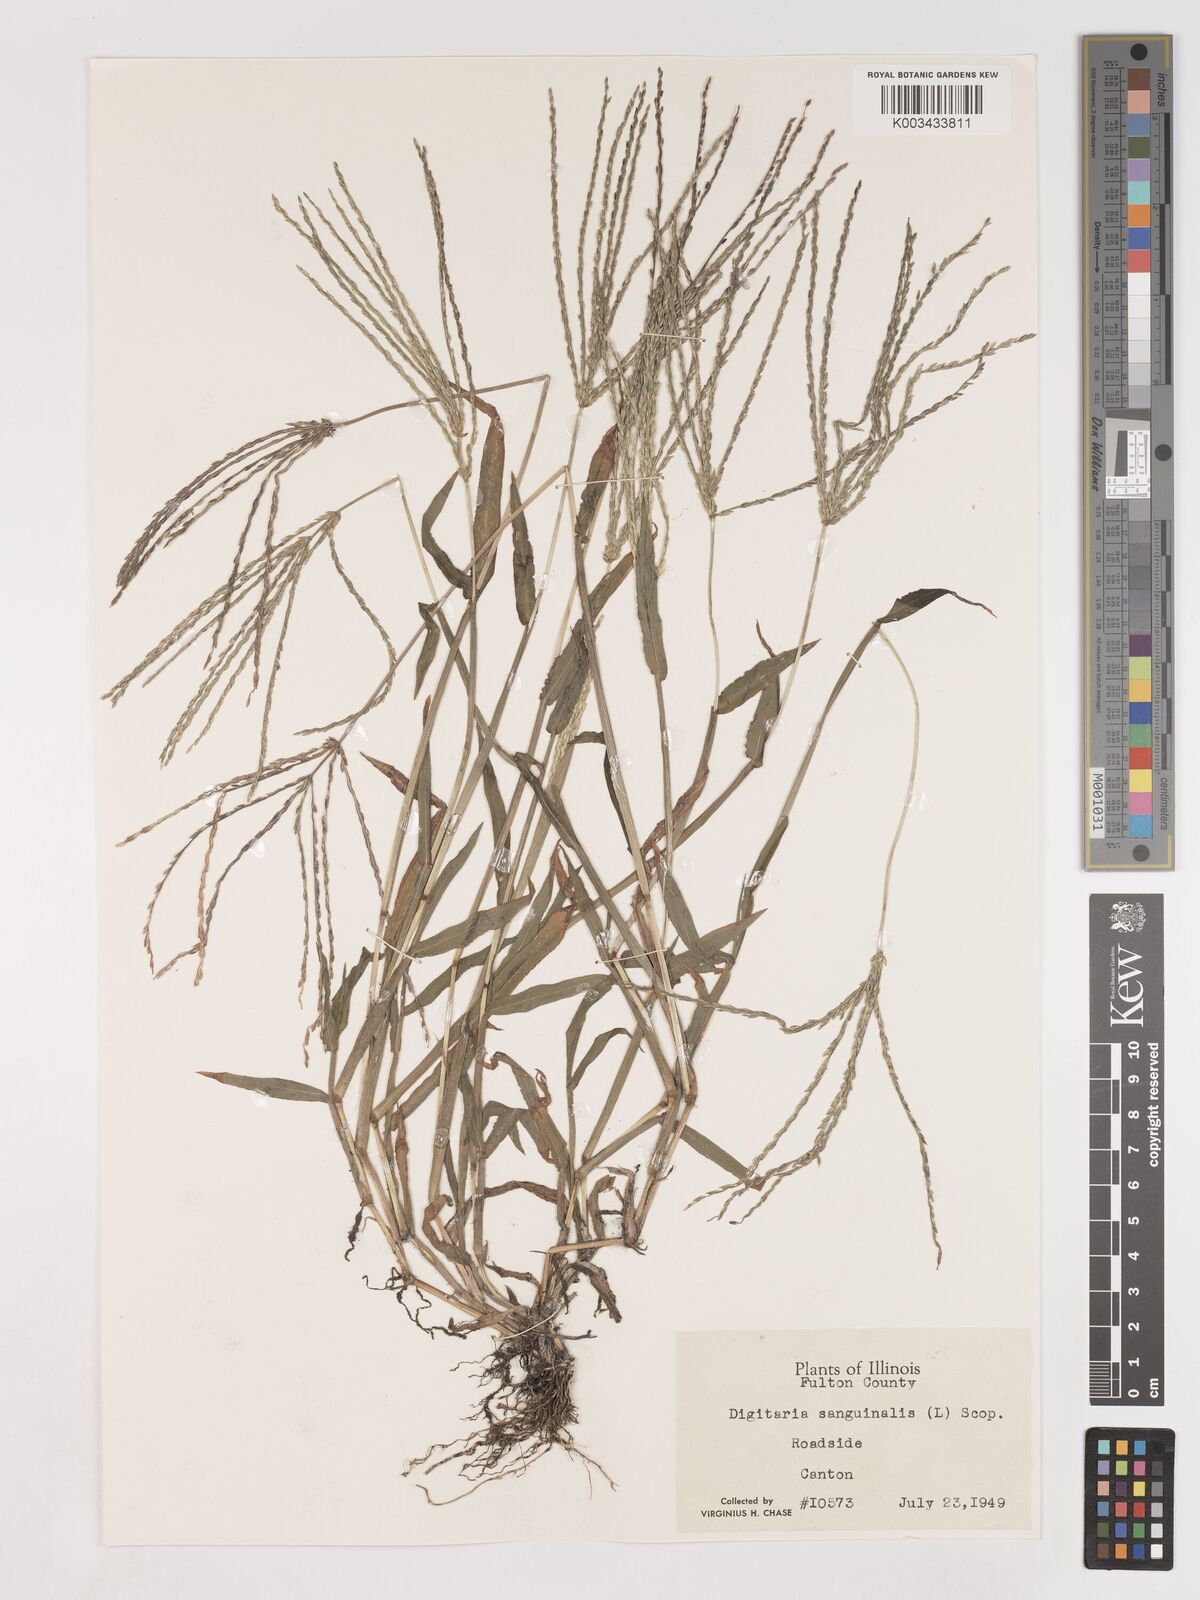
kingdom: Plantae
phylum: Tracheophyta
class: Liliopsida
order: Poales
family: Poaceae
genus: Digitaria
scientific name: Digitaria sanguinalis
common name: Hairy crabgrass
